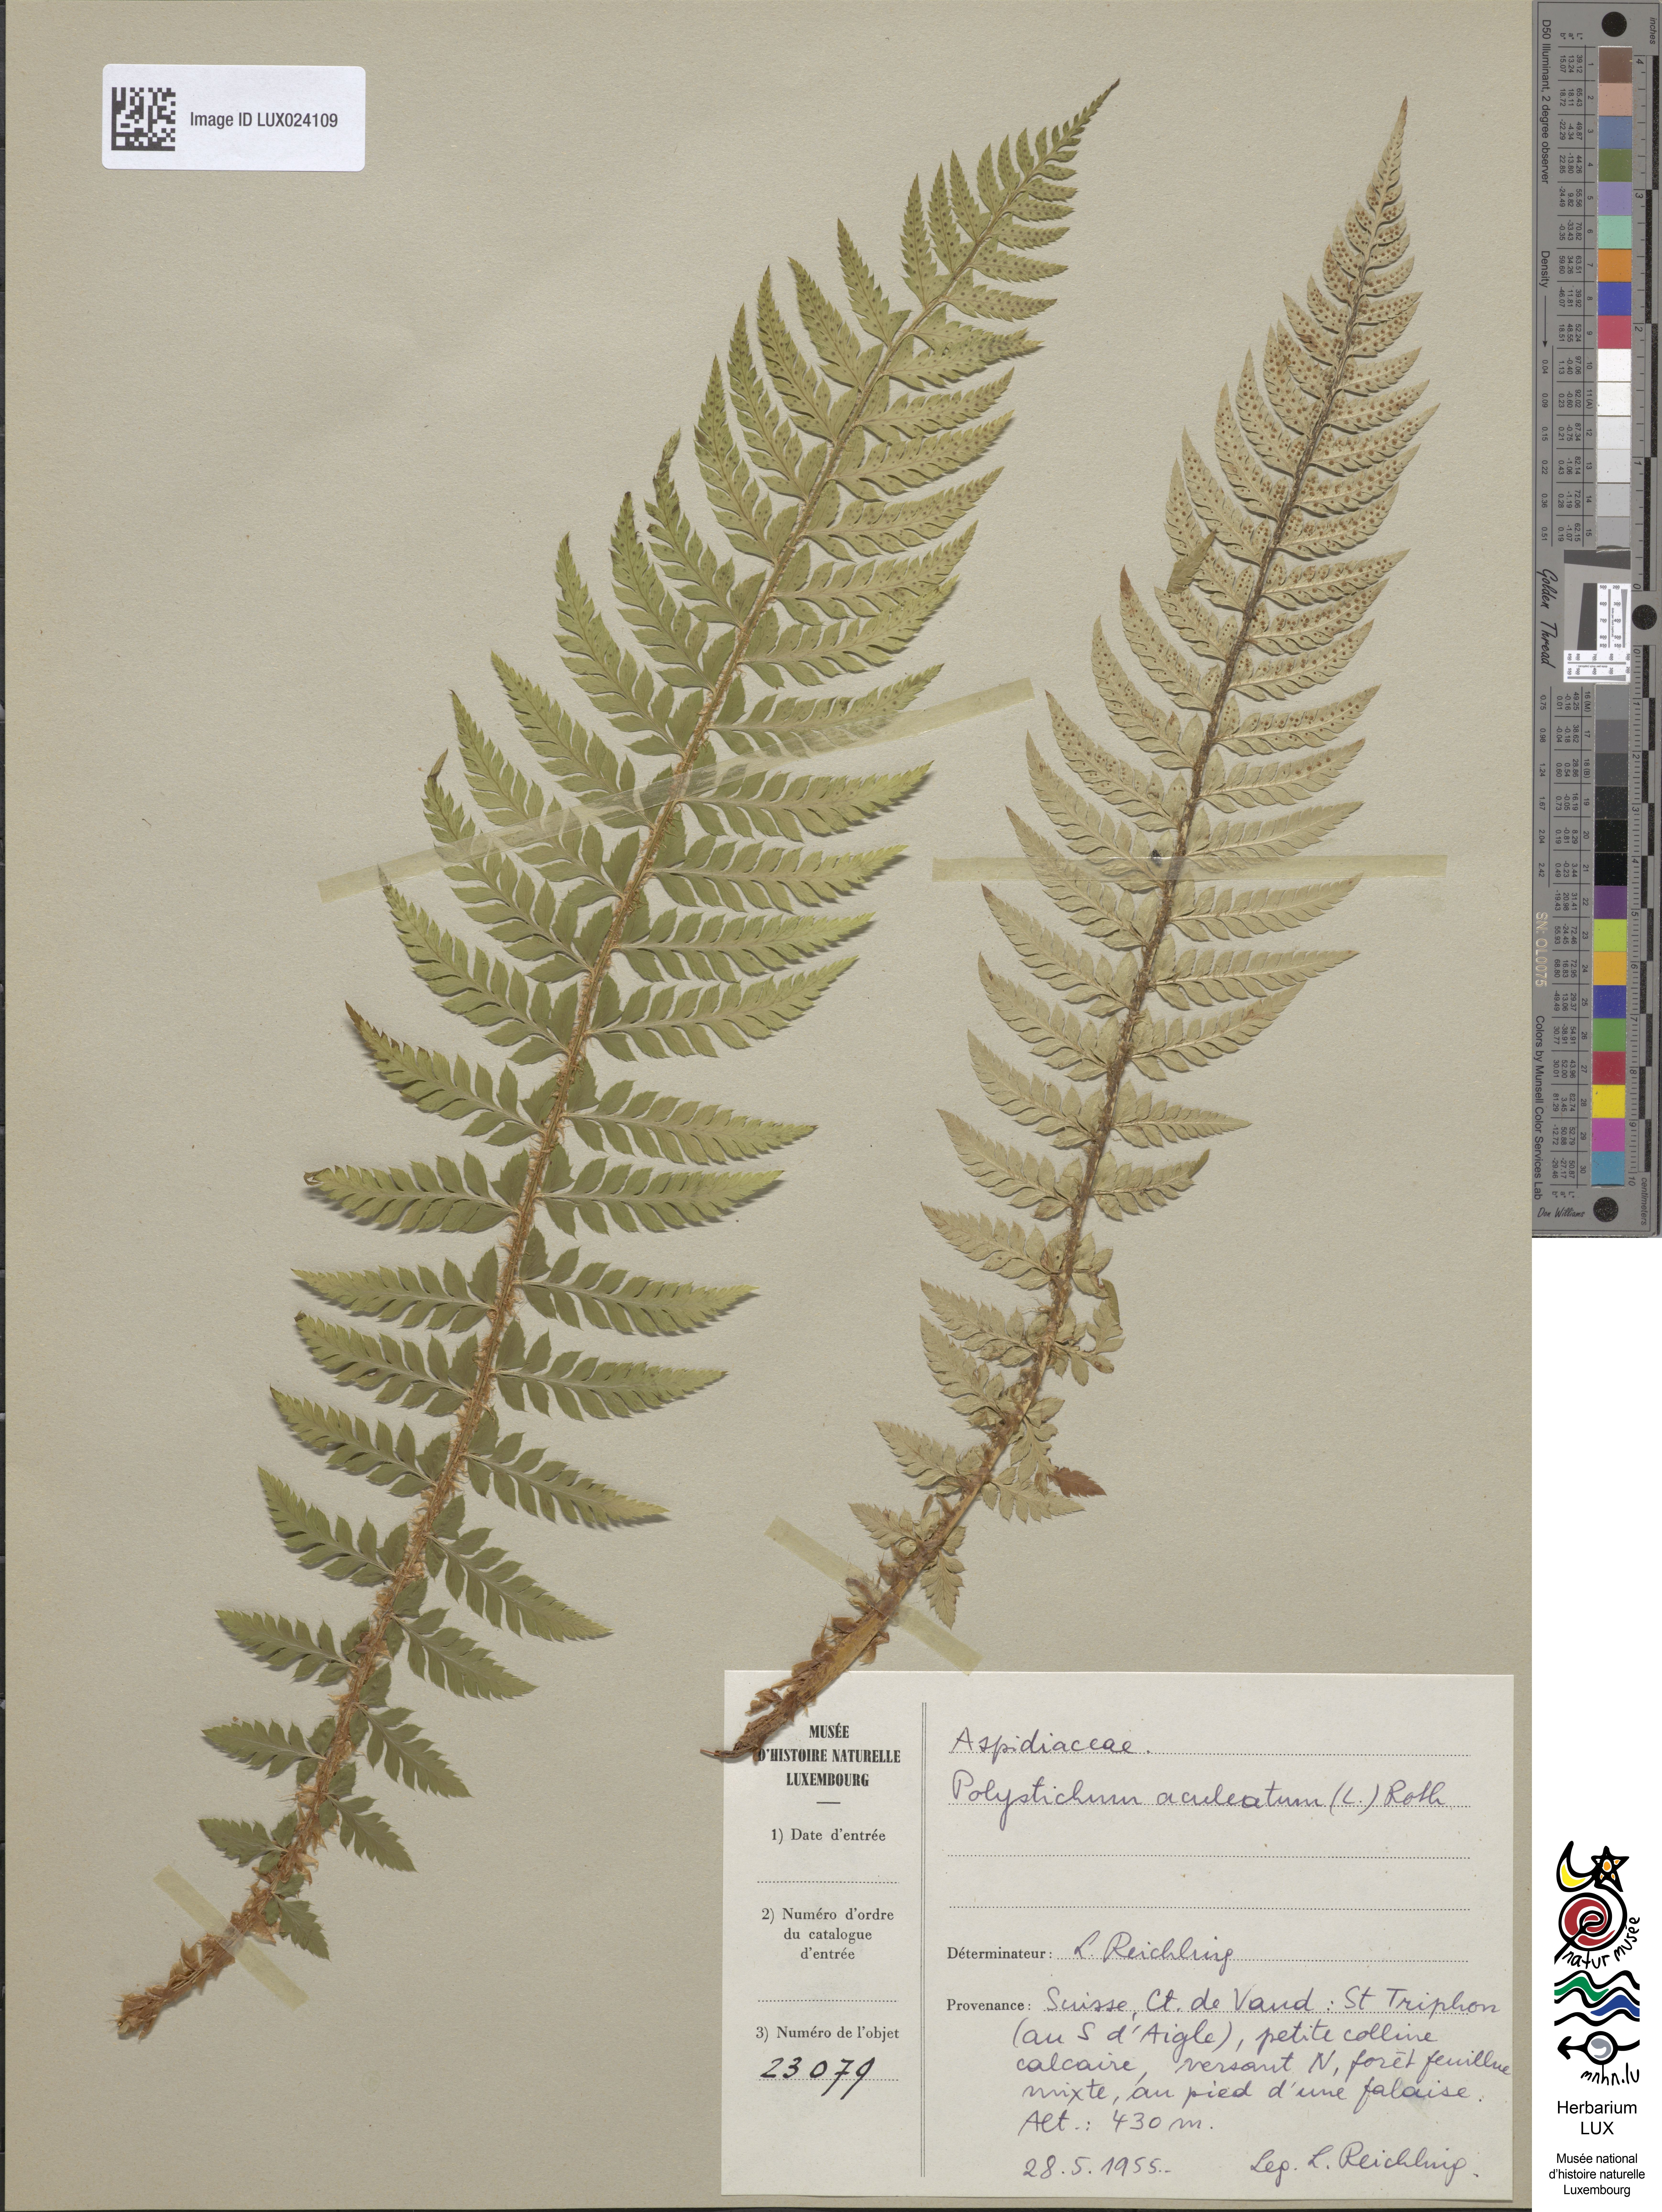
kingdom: Plantae
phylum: Tracheophyta
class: Polypodiopsida
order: Polypodiales
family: Dryopteridaceae
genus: Polystichum
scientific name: Polystichum aculeatum
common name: Hard shield-fern
